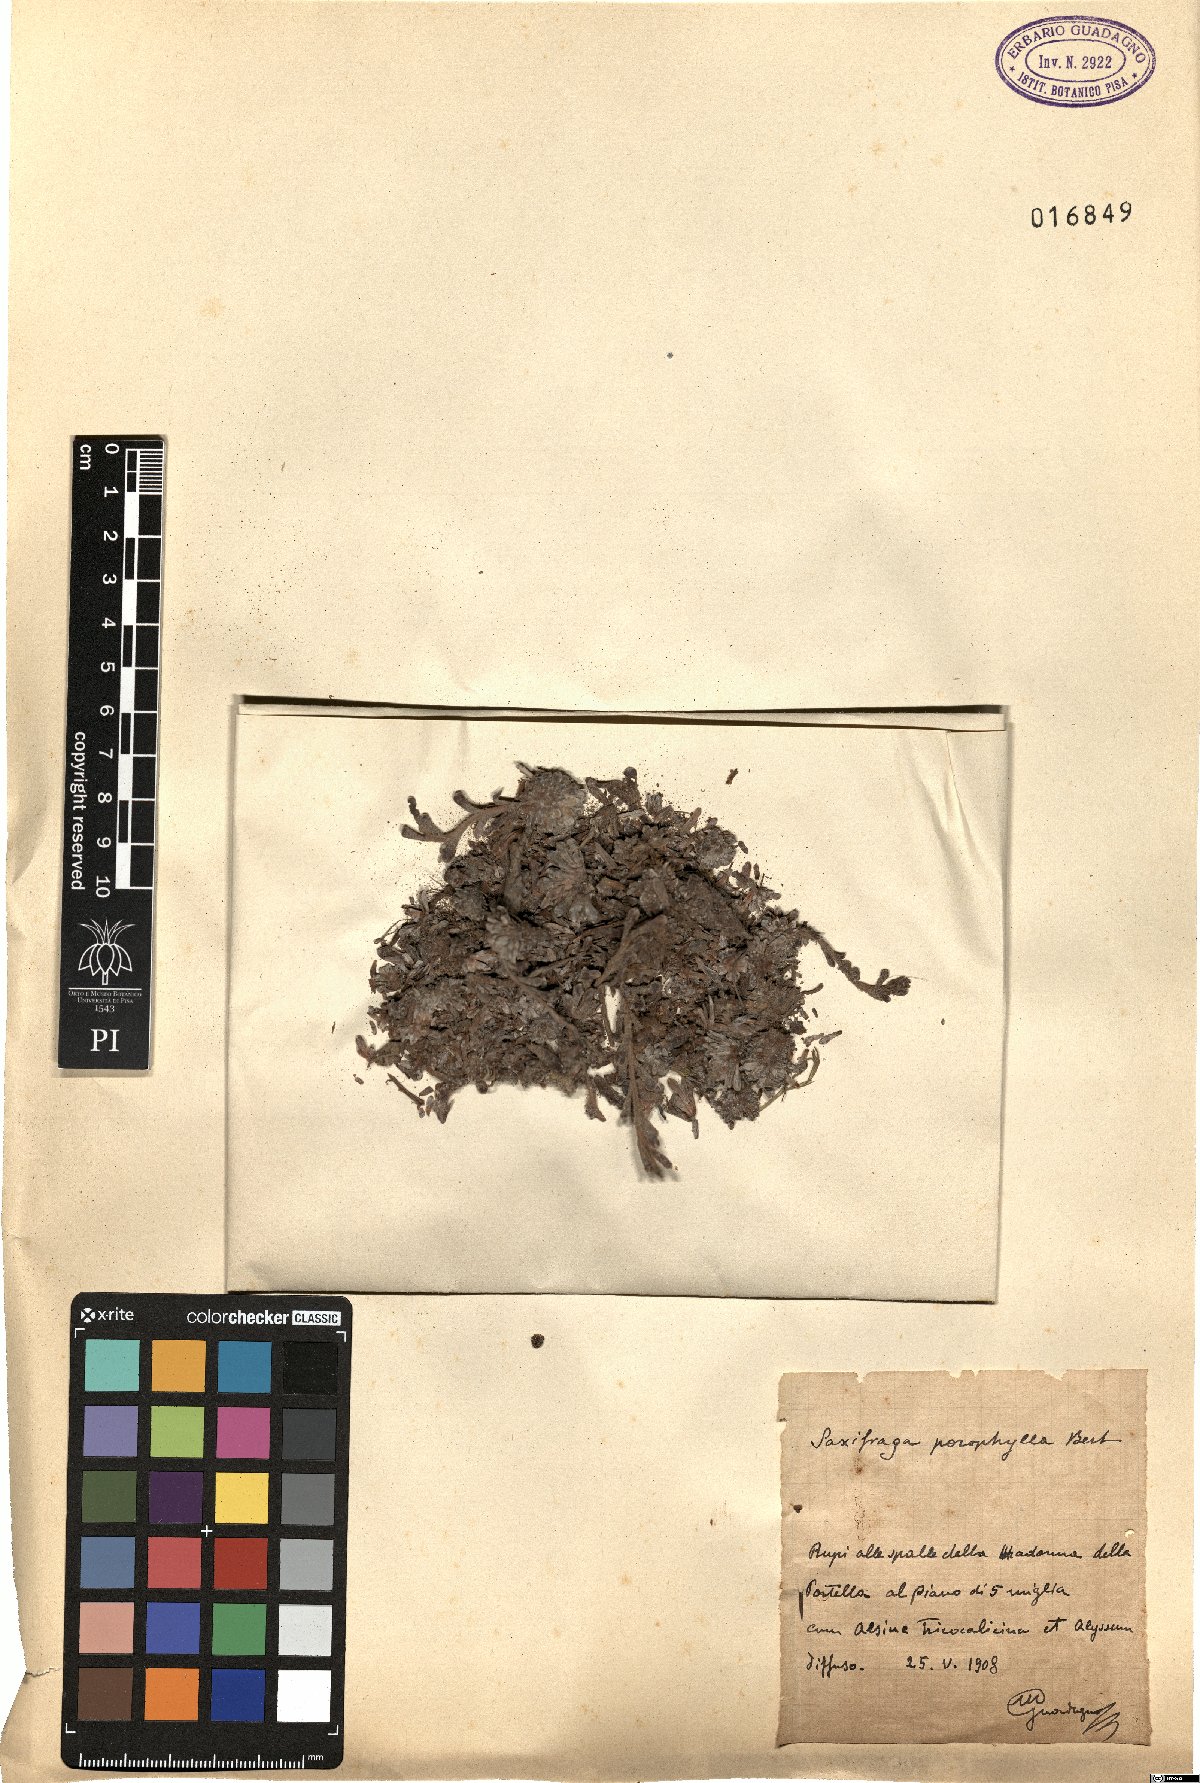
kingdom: Plantae
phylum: Tracheophyta
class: Magnoliopsida
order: Saxifragales
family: Saxifragaceae
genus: Saxifraga
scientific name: Saxifraga porophylla
